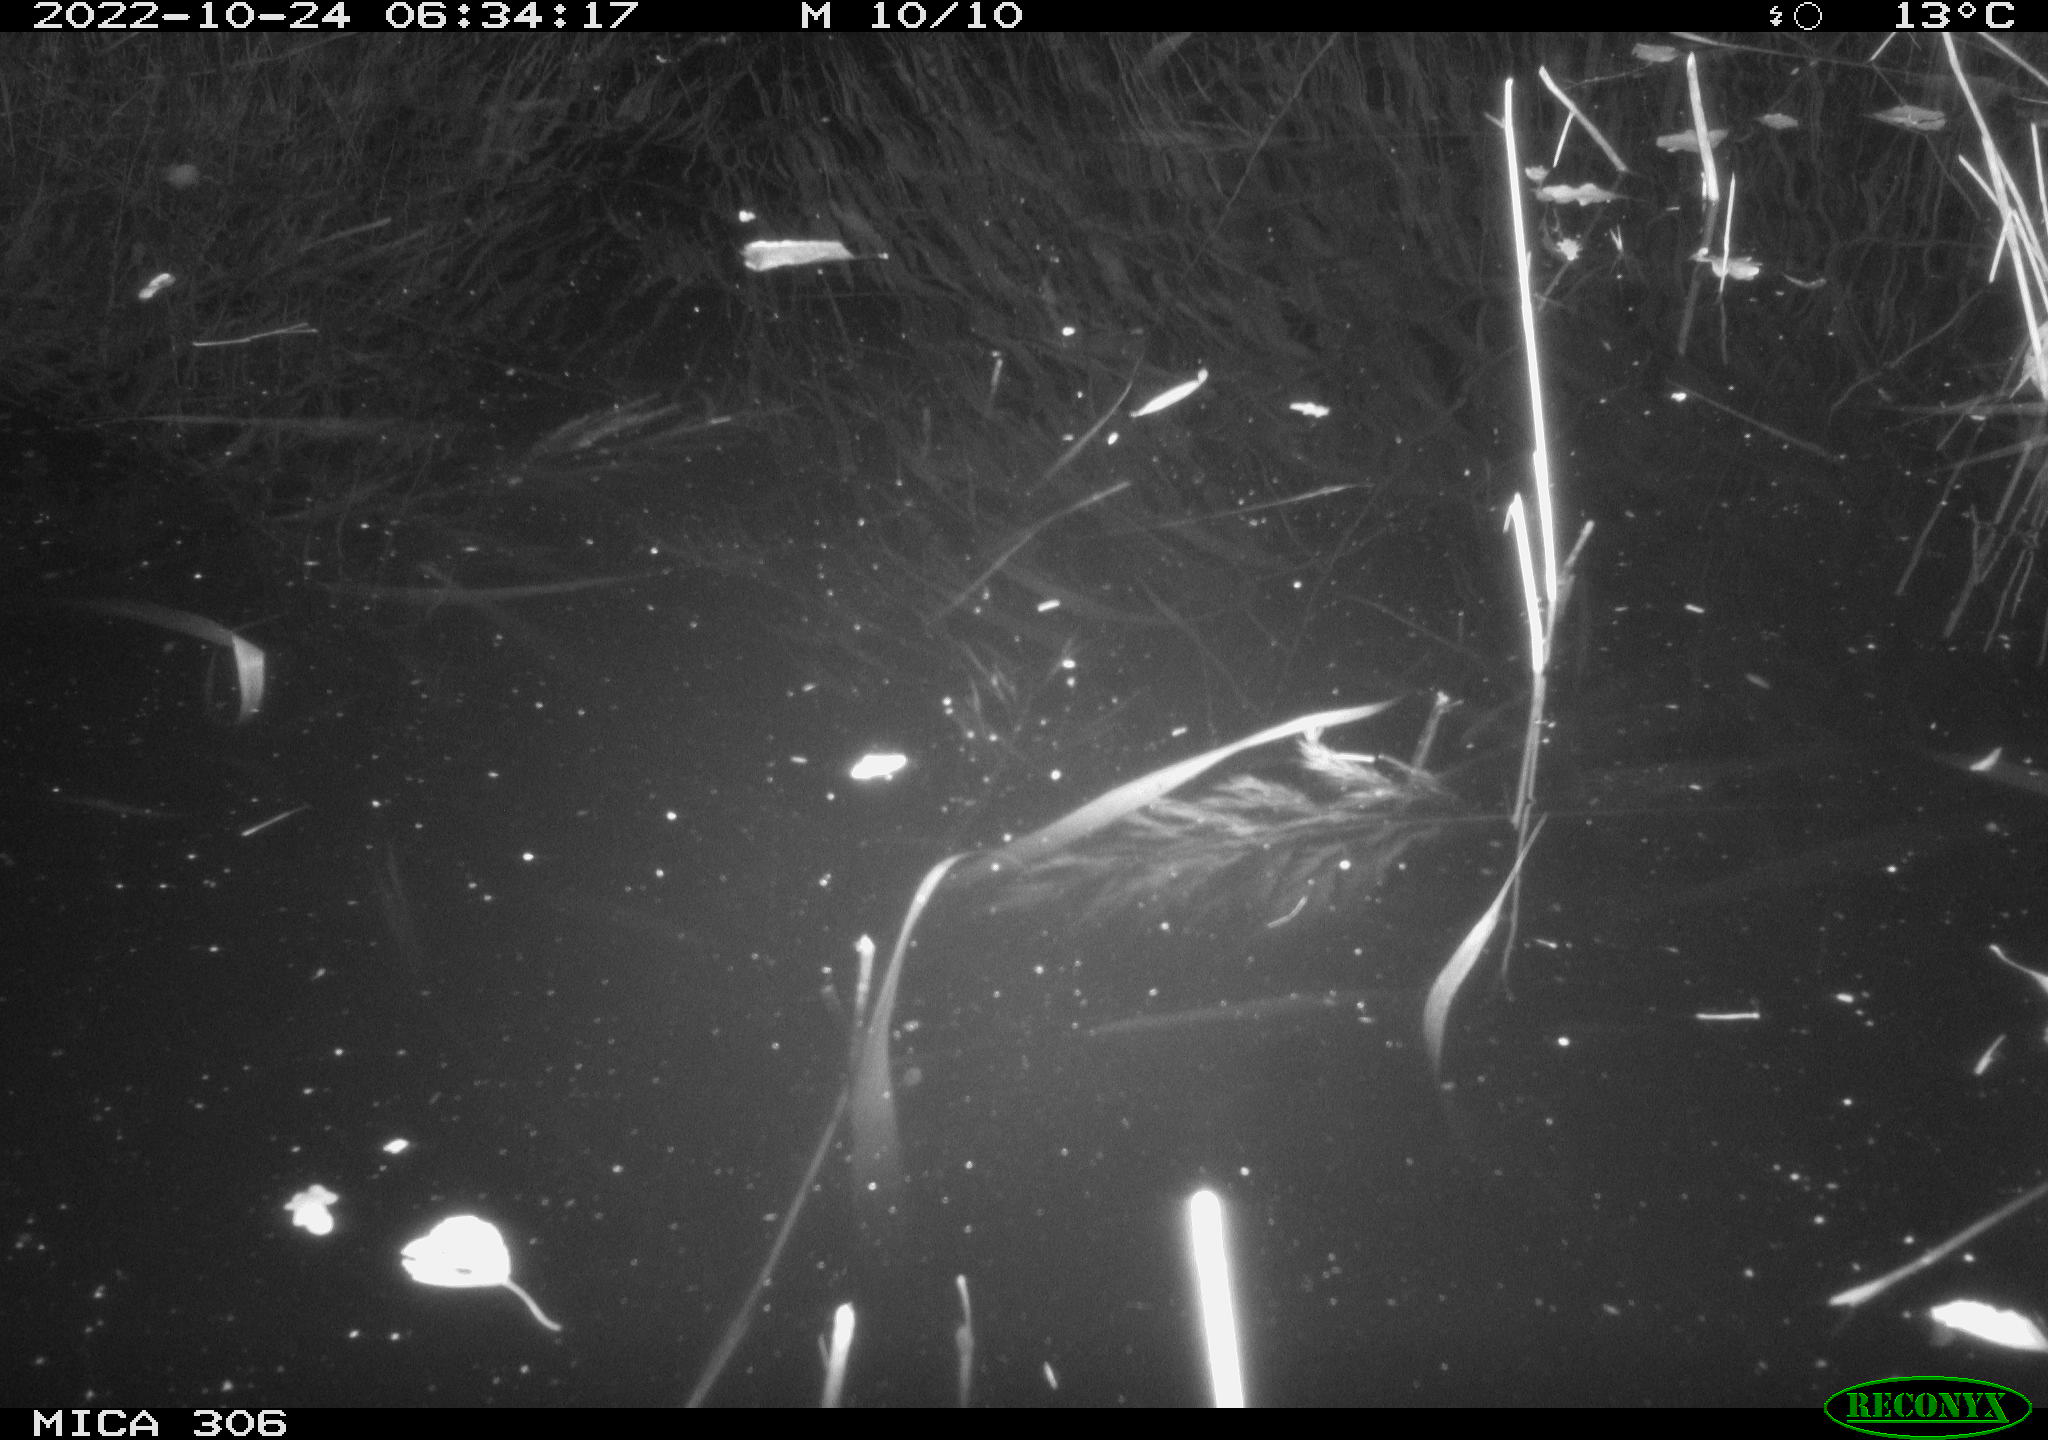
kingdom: Animalia
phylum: Chordata
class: Mammalia
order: Rodentia
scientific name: Rodentia
